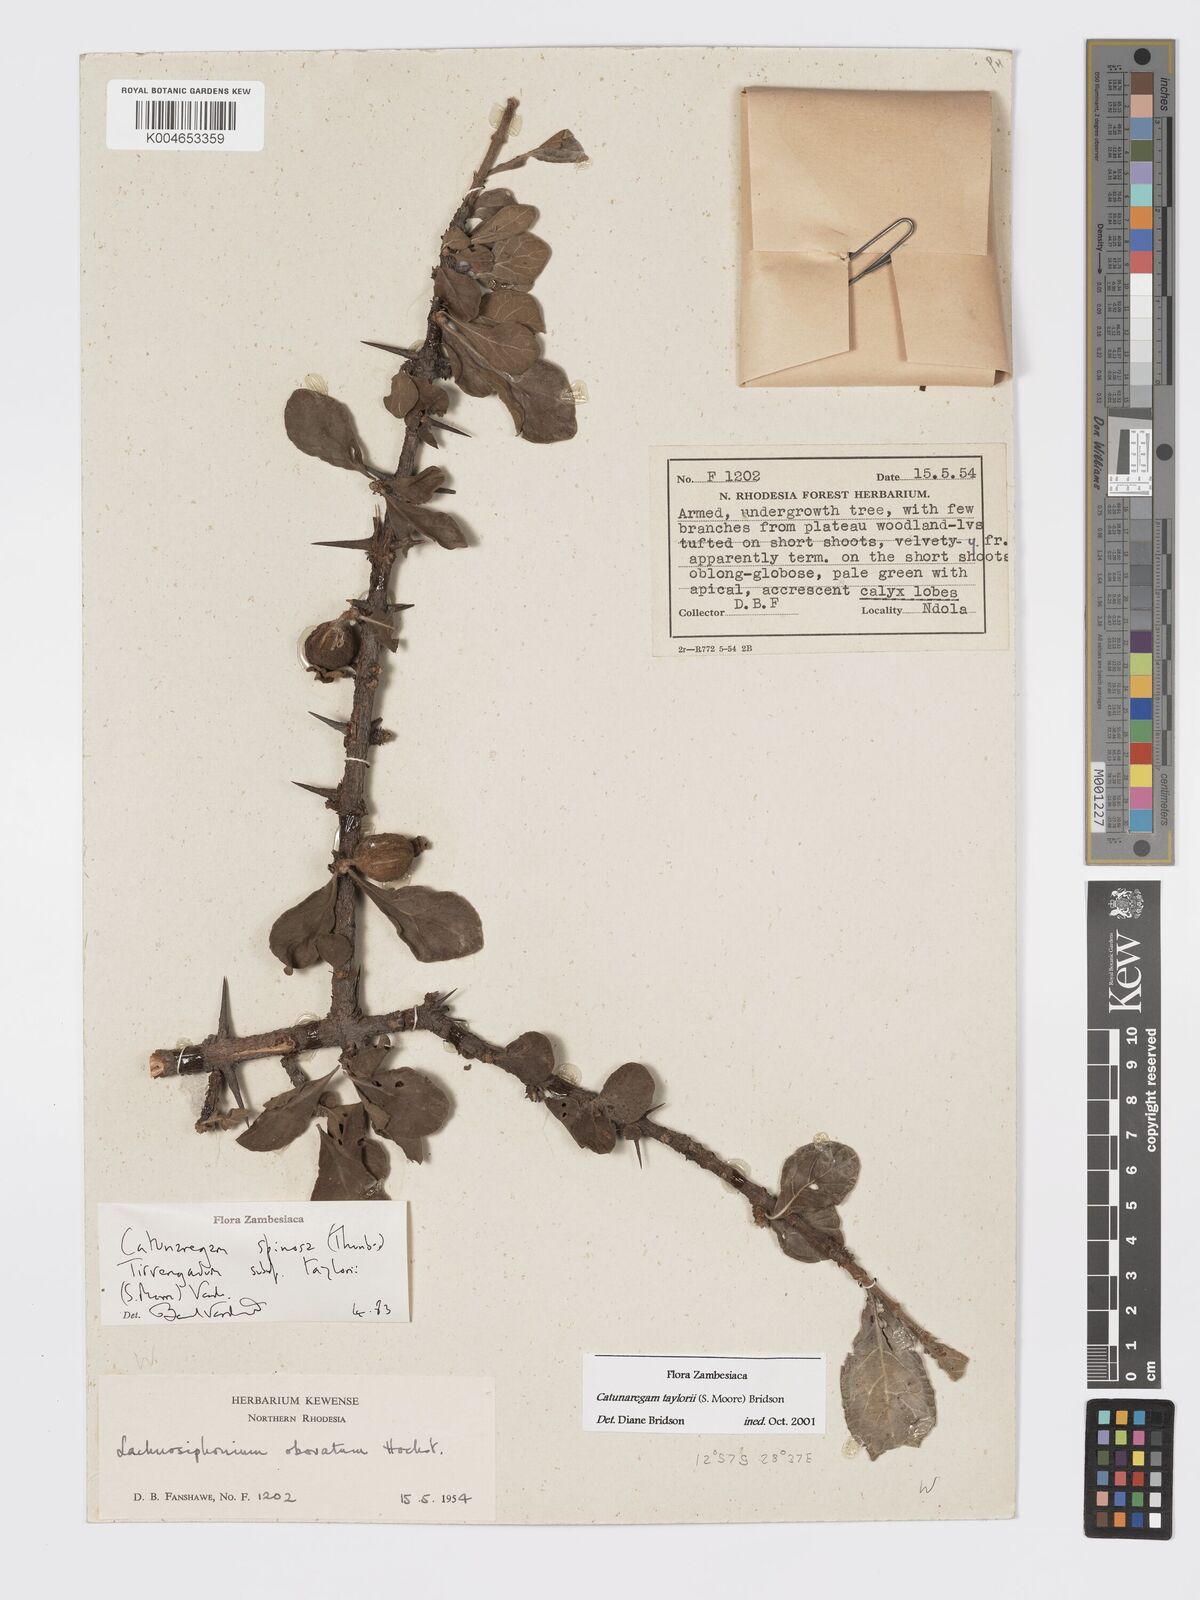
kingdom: Plantae
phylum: Tracheophyta
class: Magnoliopsida
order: Gentianales
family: Rubiaceae
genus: Catunaregam
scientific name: Catunaregam
